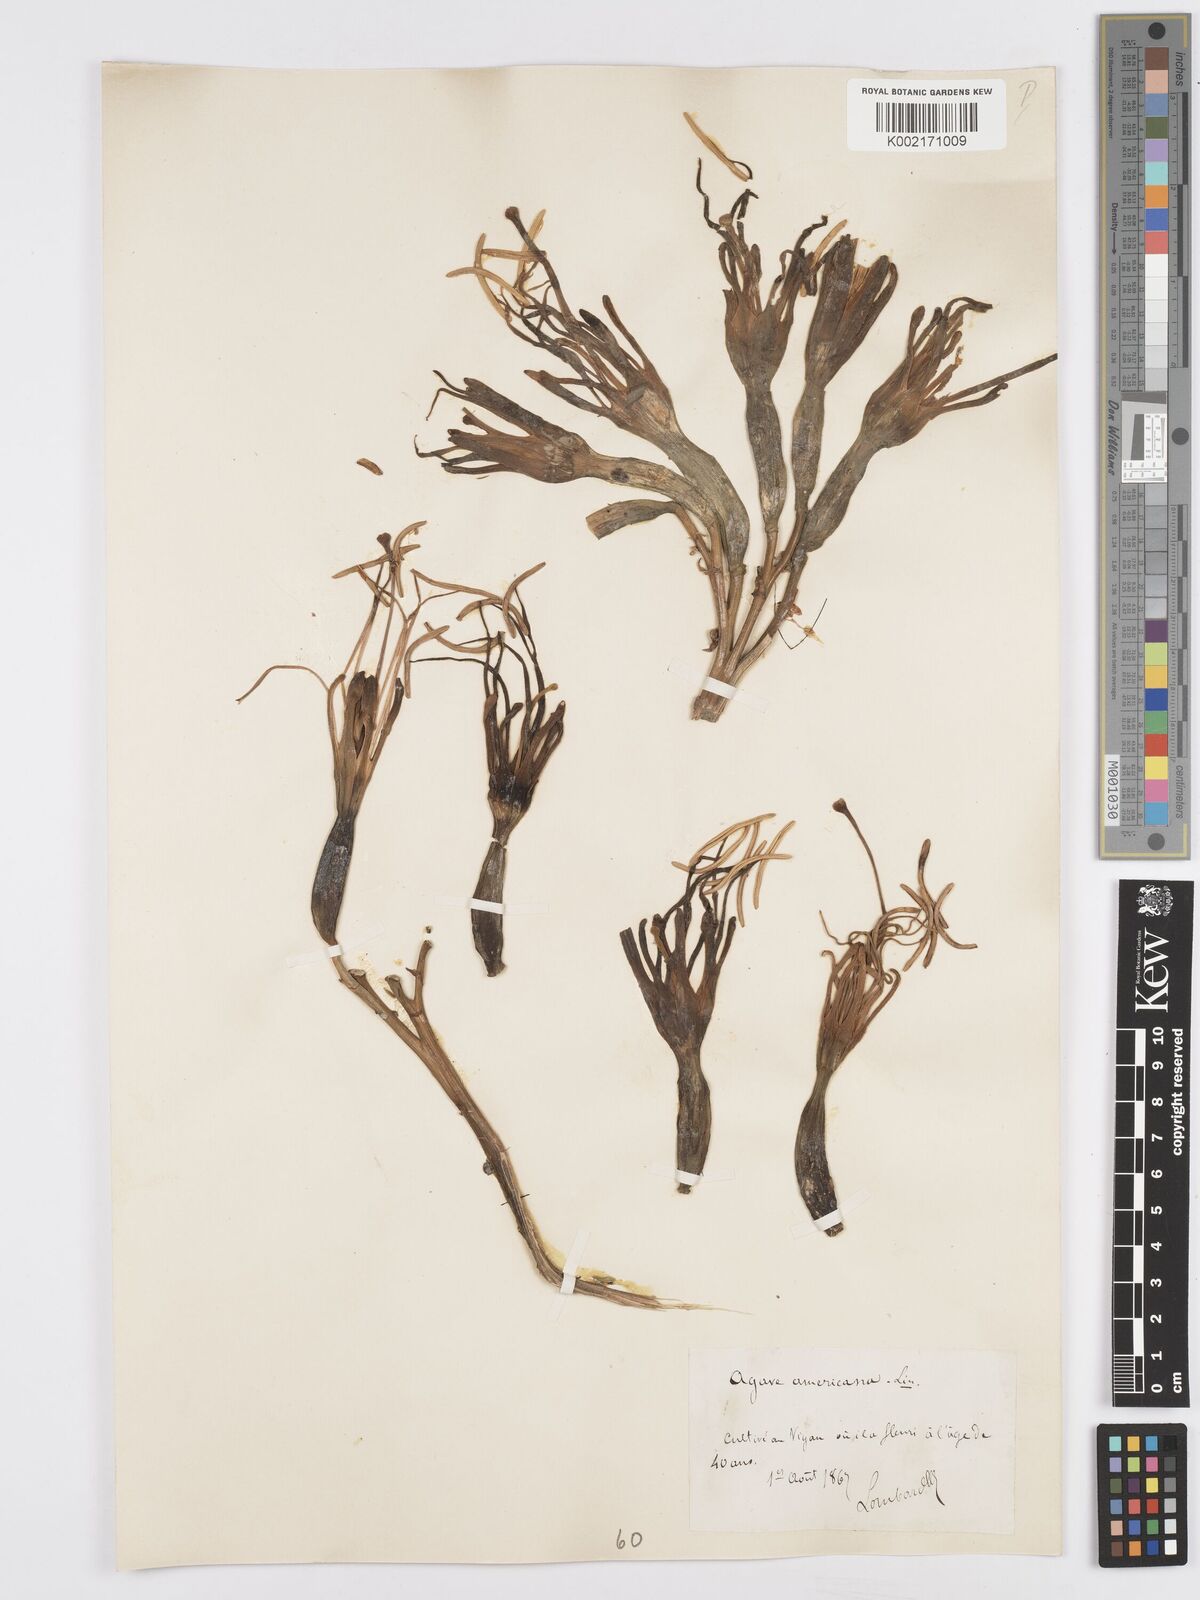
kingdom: Plantae
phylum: Tracheophyta
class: Liliopsida
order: Asparagales
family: Asparagaceae
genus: Agave
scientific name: Agave americana
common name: Centuryplant
